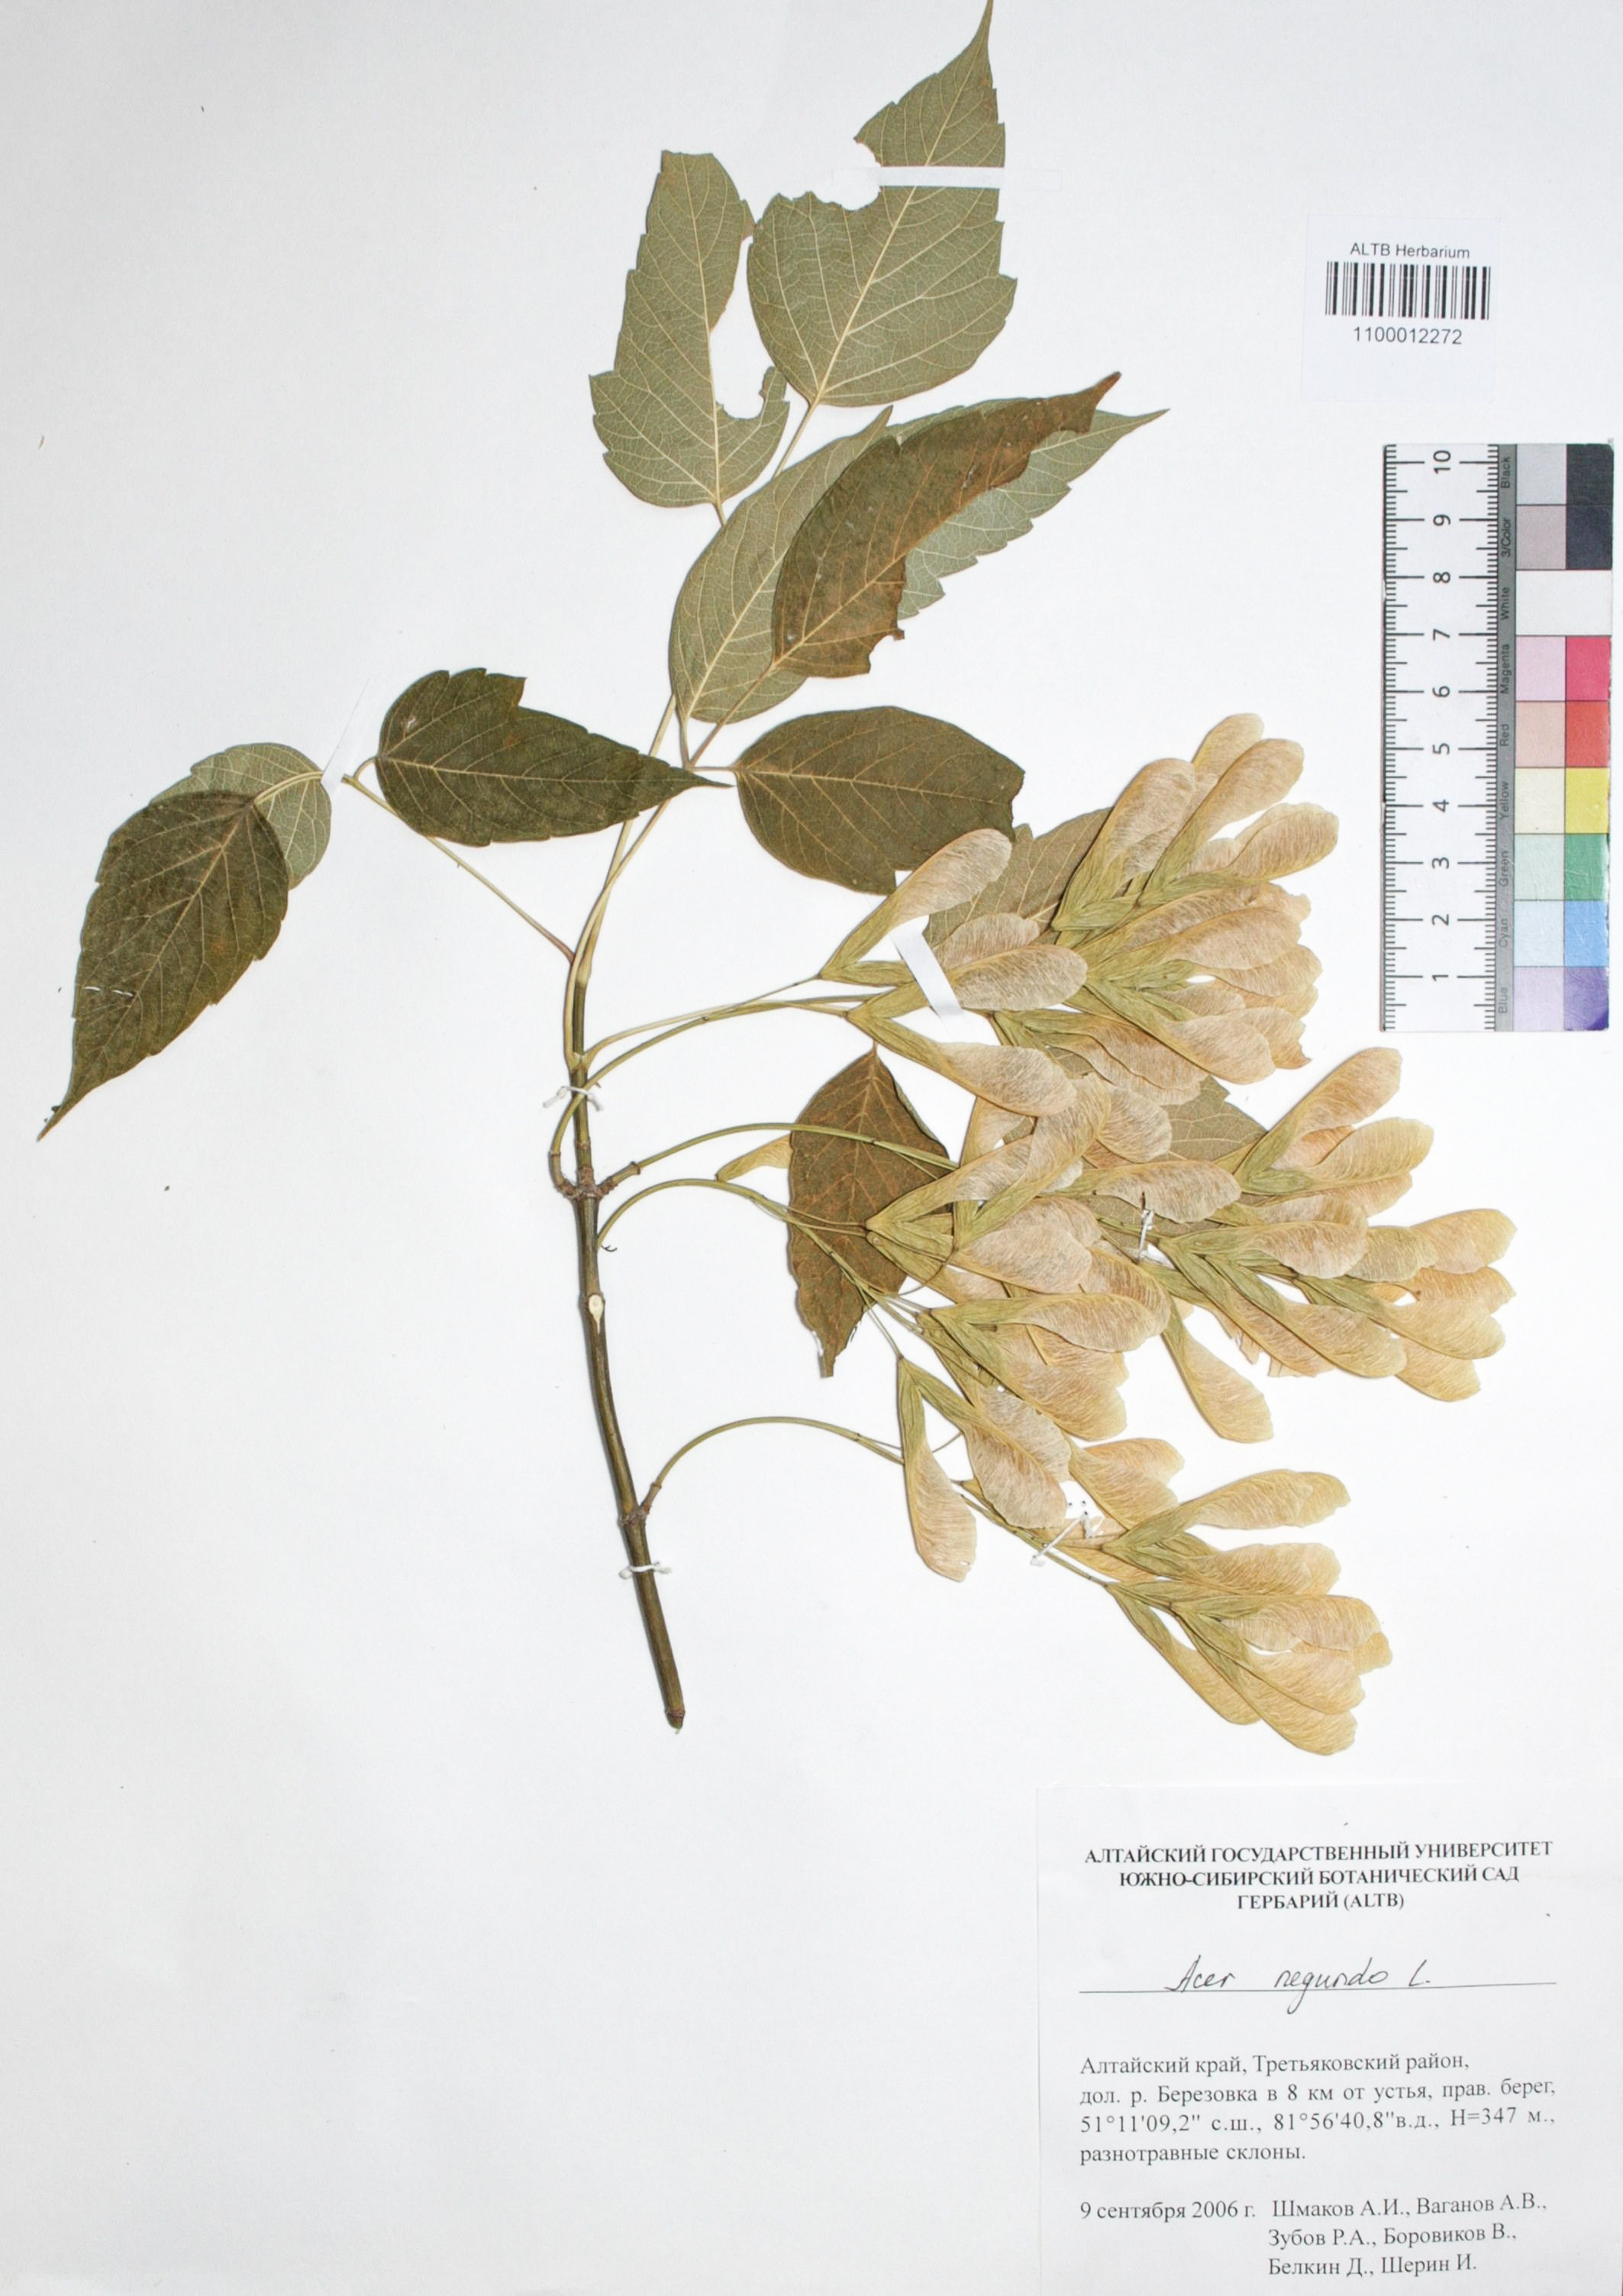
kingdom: Plantae
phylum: Tracheophyta
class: Magnoliopsida
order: Sapindales
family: Sapindaceae
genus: Acer
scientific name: Acer negundo
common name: Ashleaf maple
